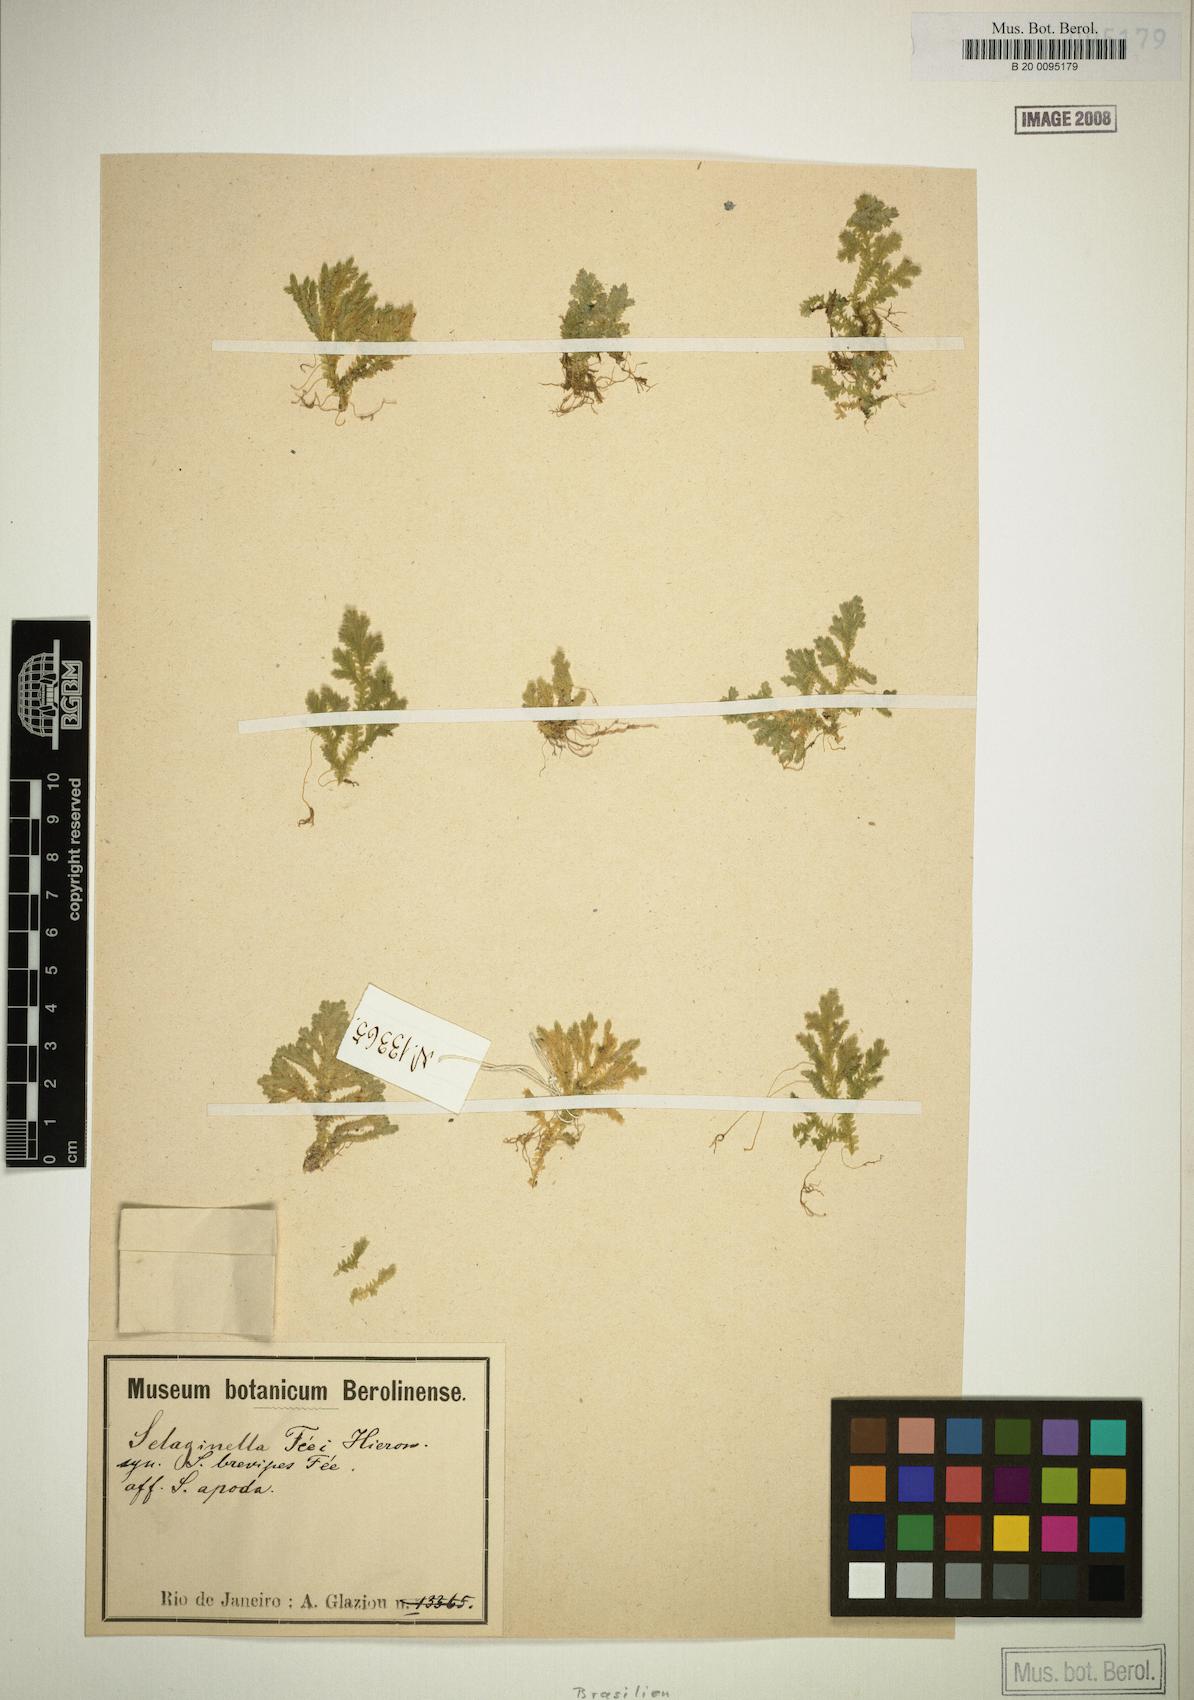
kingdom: Plantae
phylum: Tracheophyta
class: Lycopodiopsida
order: Selaginellales
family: Selaginellaceae
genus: Selaginella
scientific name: Selaginella muscosa
